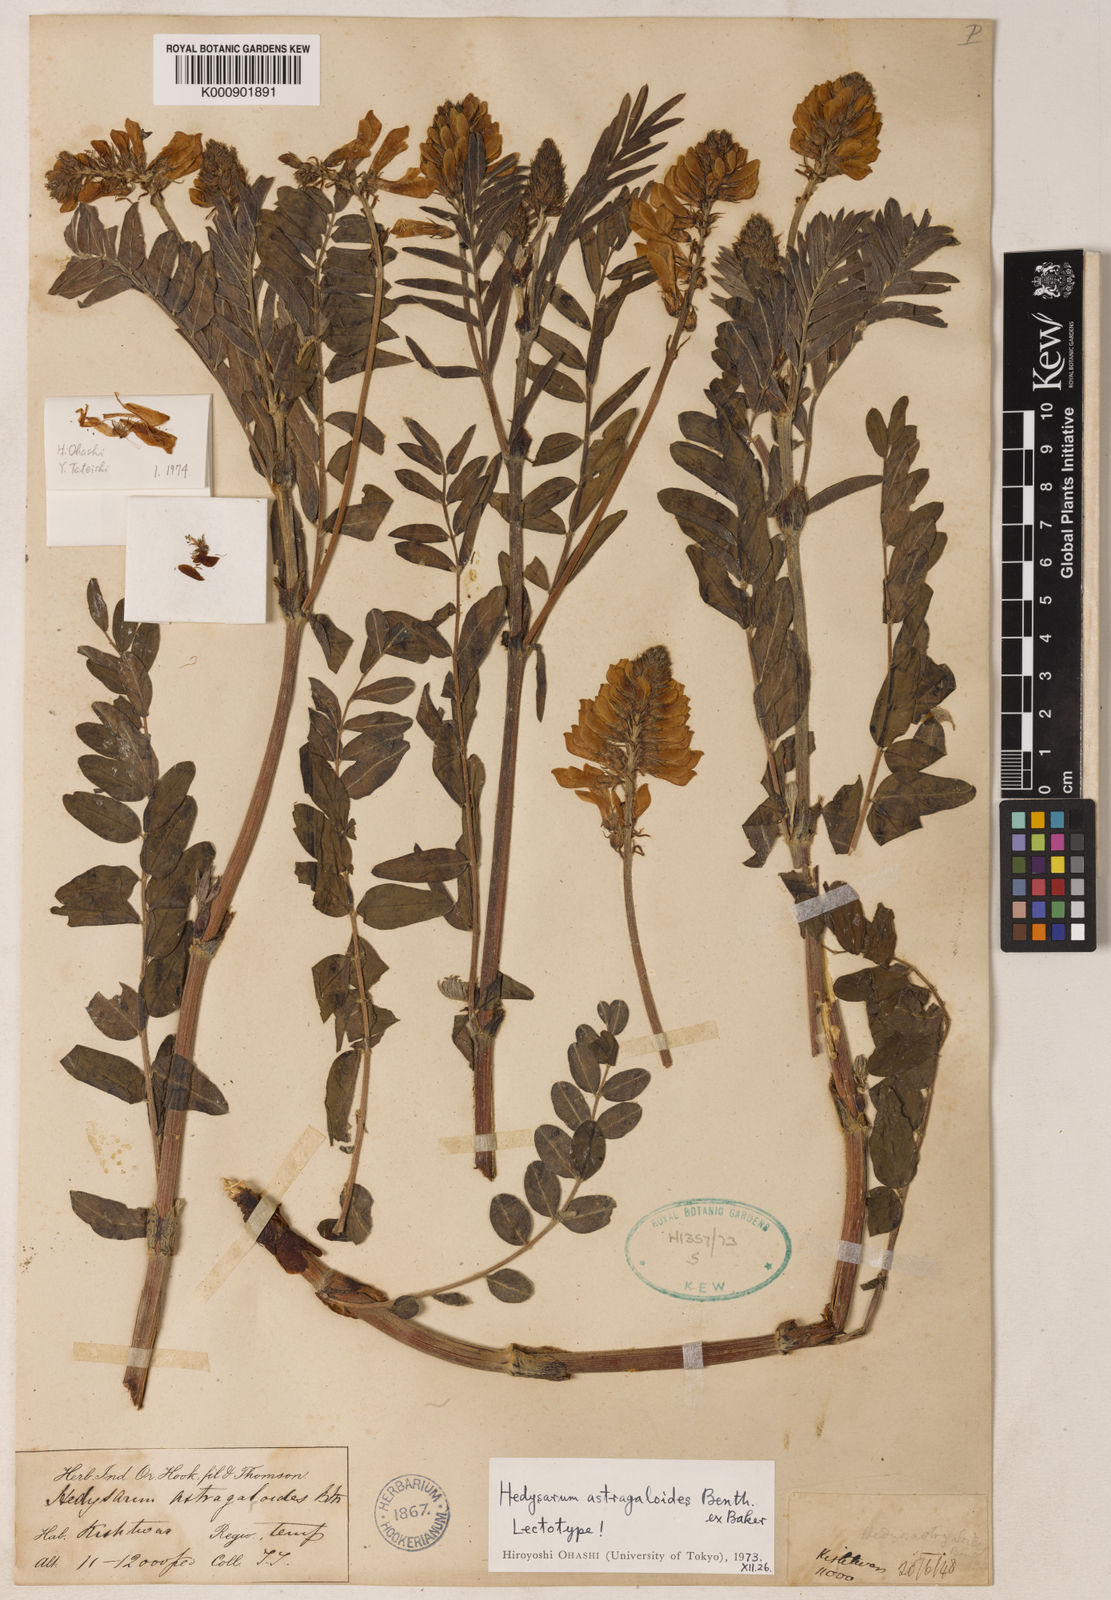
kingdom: Plantae
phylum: Tracheophyta
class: Magnoliopsida
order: Fabales
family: Fabaceae
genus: Hedysarum
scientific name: Hedysarum astragaloides
